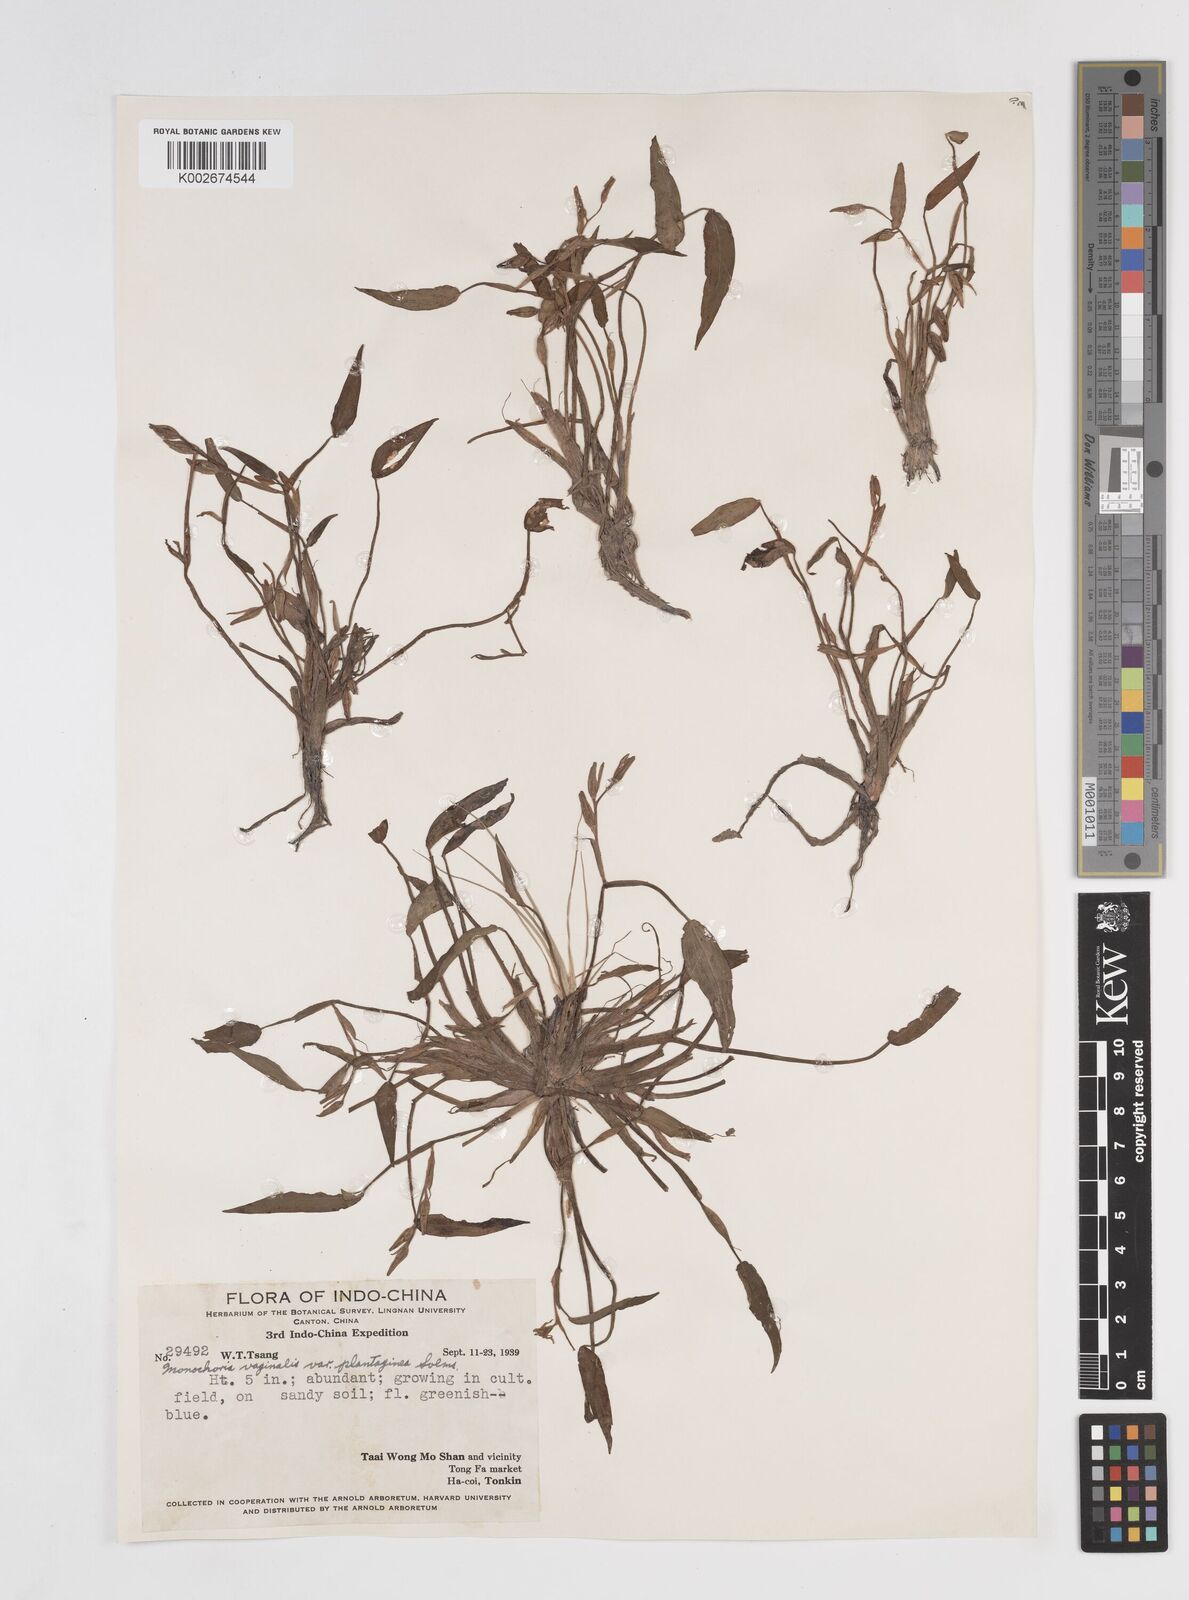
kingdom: Plantae
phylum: Tracheophyta
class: Liliopsida
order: Commelinales
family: Pontederiaceae
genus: Pontederia
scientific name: Pontederia vaginalis
